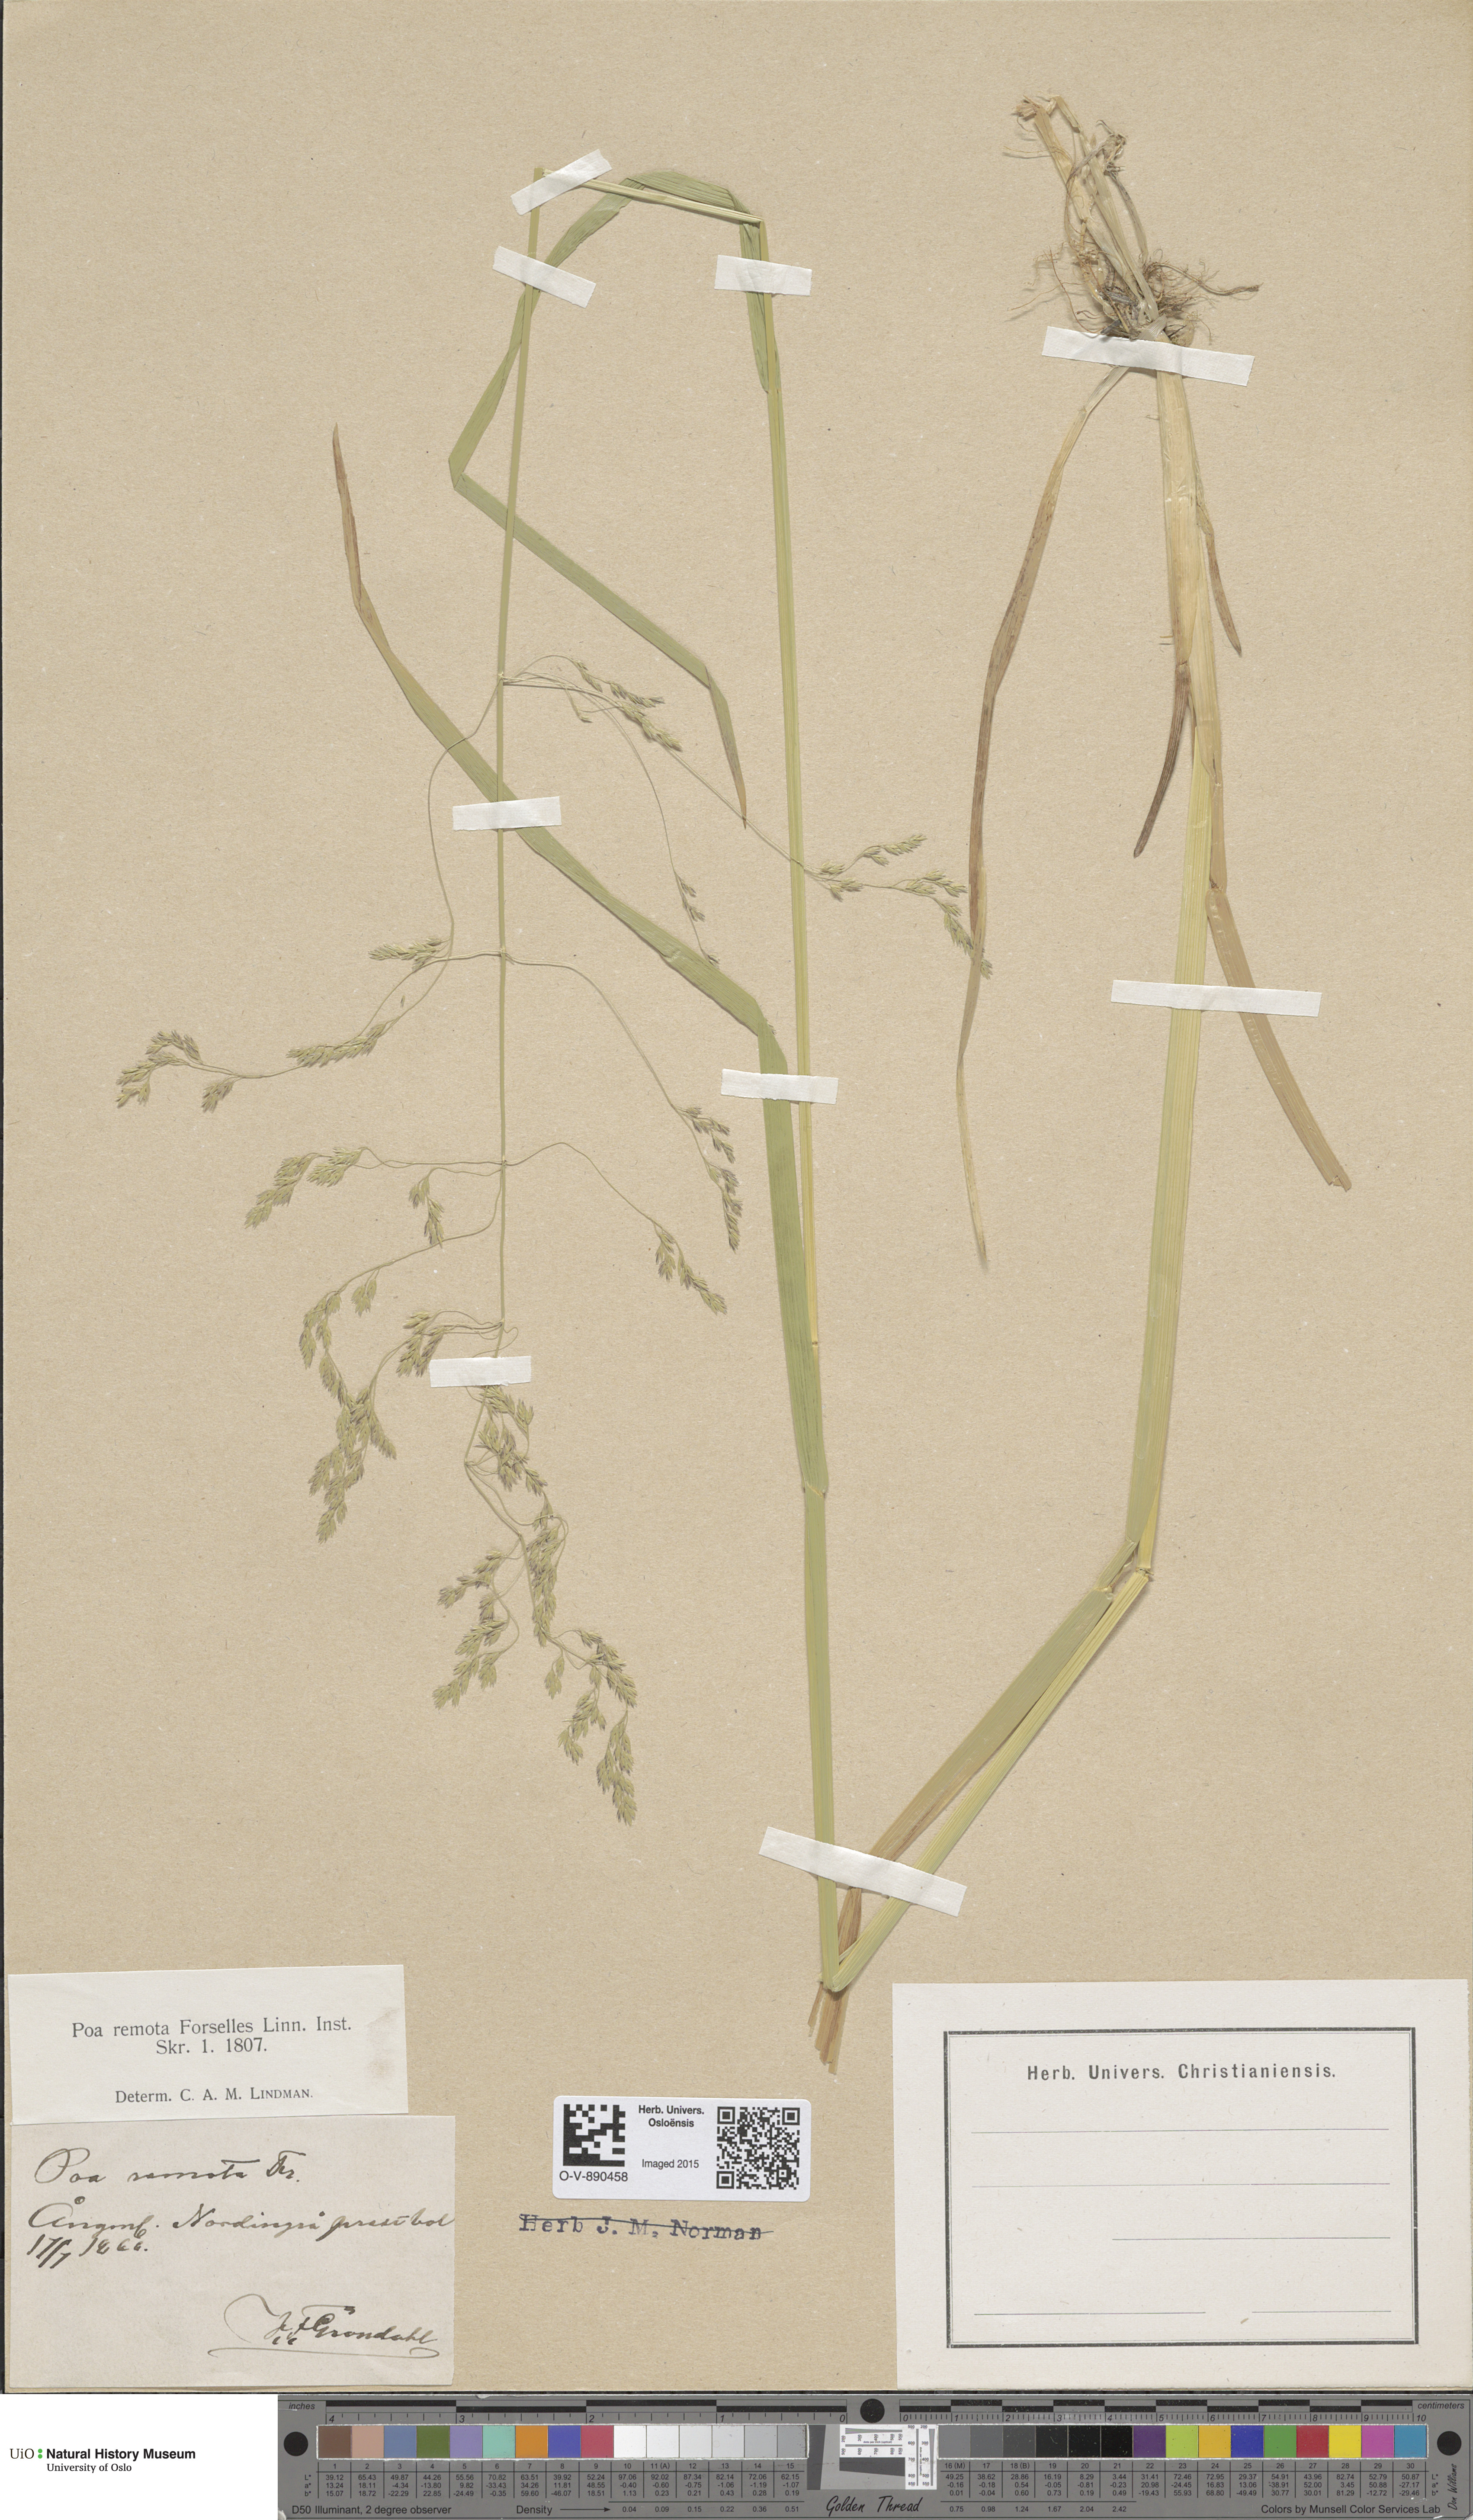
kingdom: Plantae
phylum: Tracheophyta
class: Liliopsida
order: Poales
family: Poaceae
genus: Poa
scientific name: Poa remota
